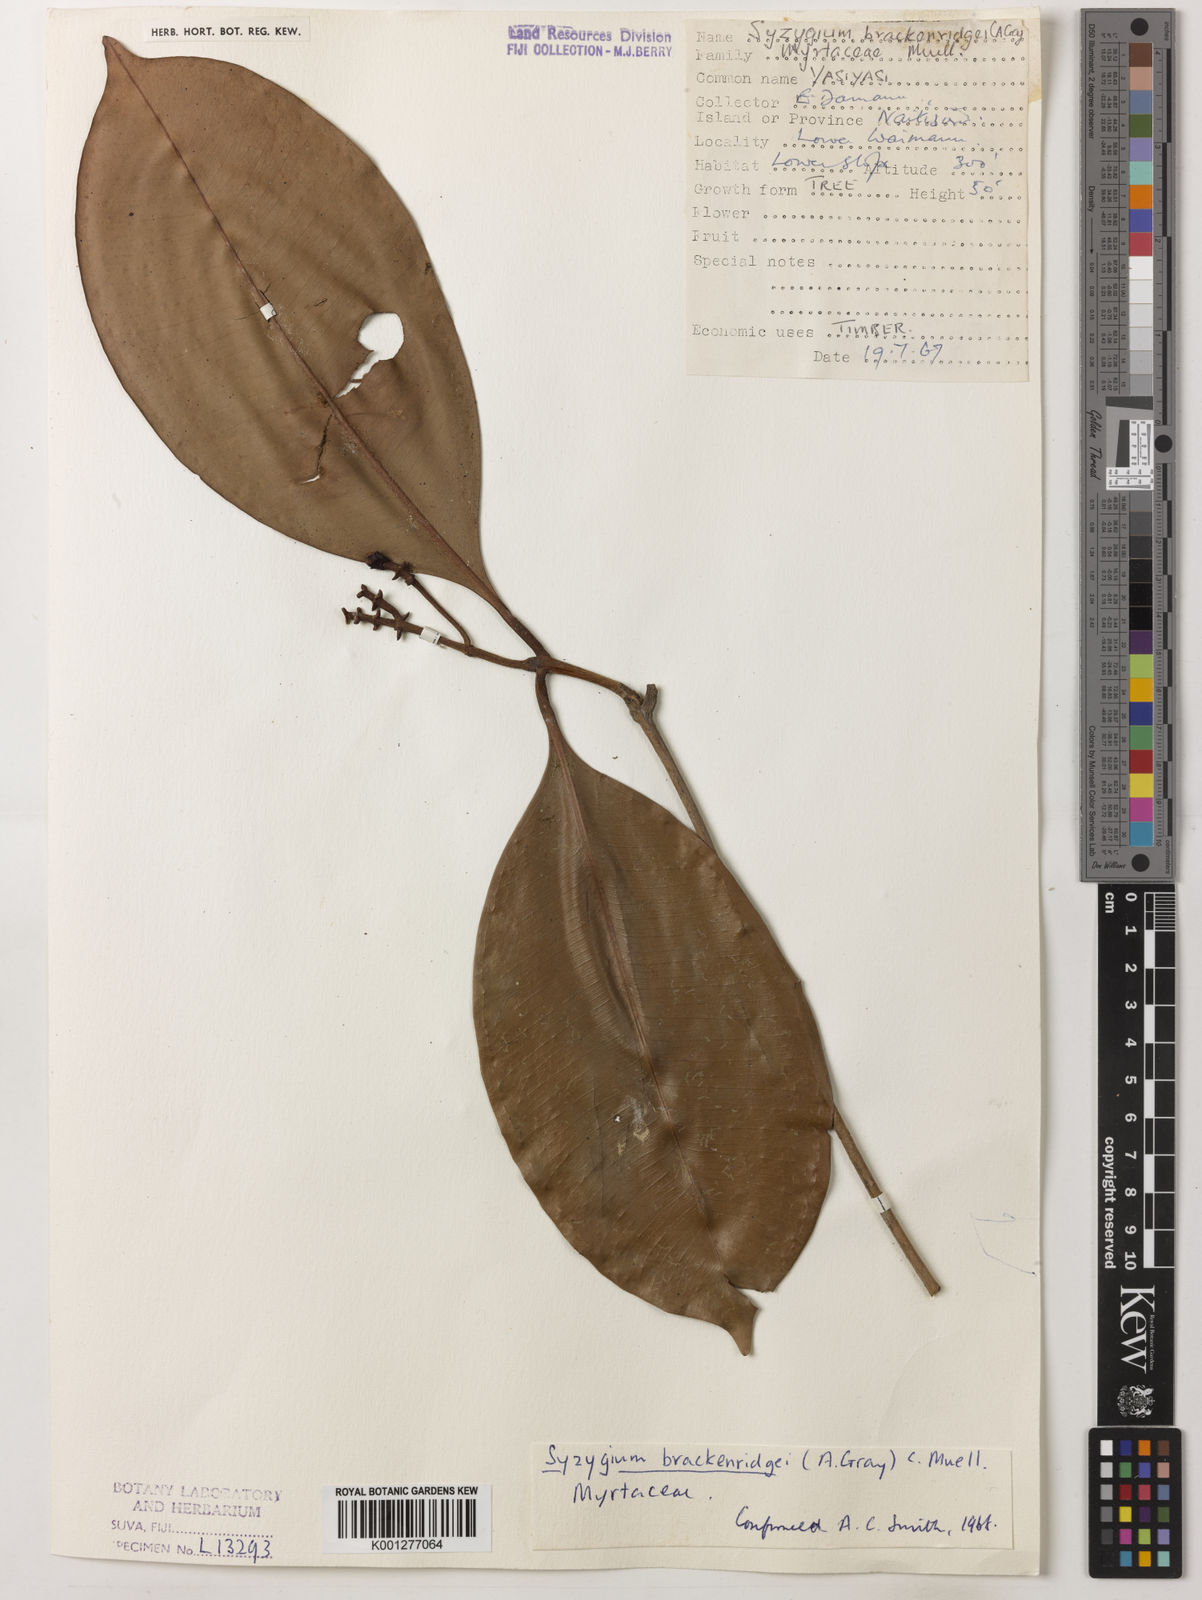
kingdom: Plantae
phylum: Tracheophyta
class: Magnoliopsida
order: Myrtales
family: Myrtaceae
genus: Syzygium
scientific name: Syzygium
